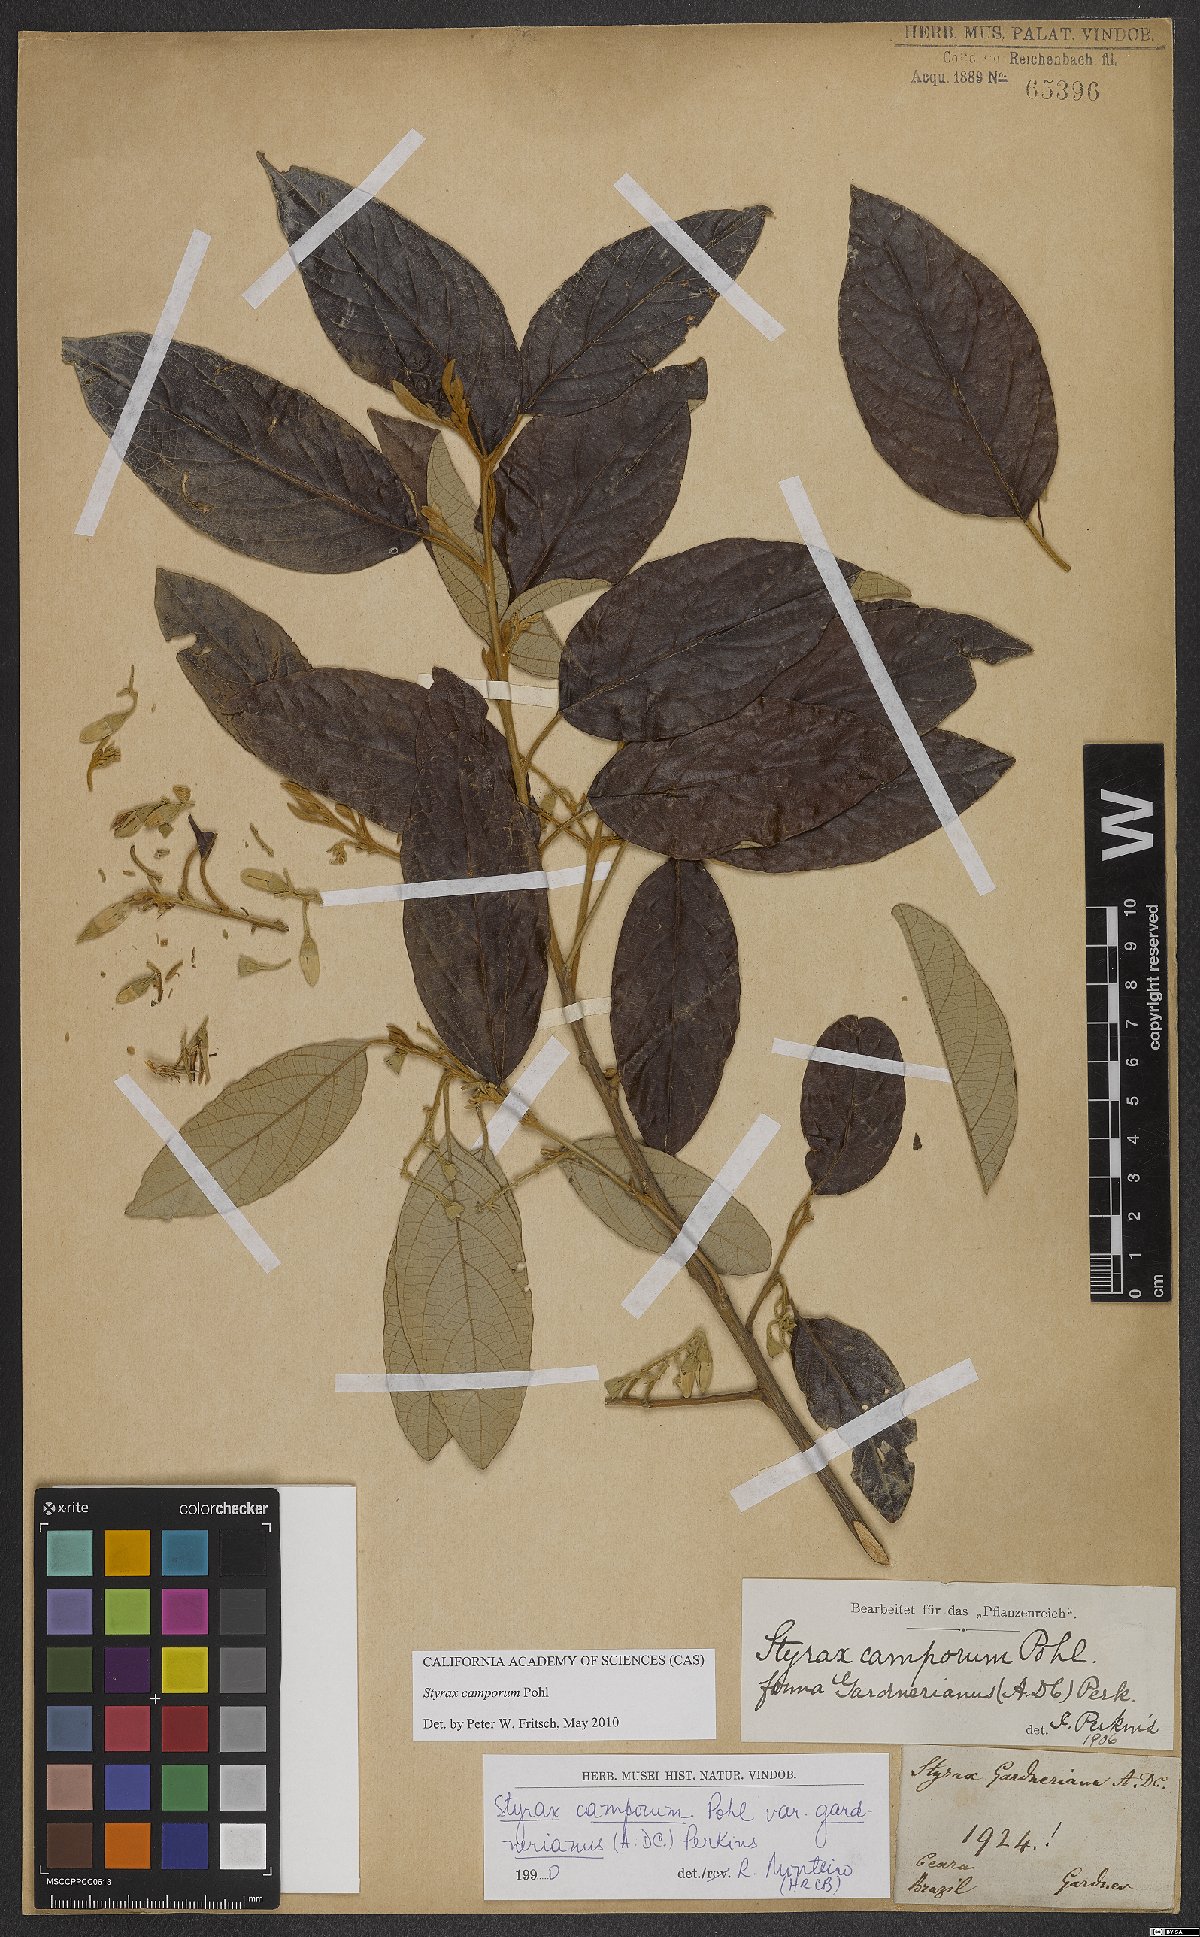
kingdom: Plantae
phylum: Tracheophyta
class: Magnoliopsida
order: Ericales
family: Styracaceae
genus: Styrax
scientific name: Styrax camporum
